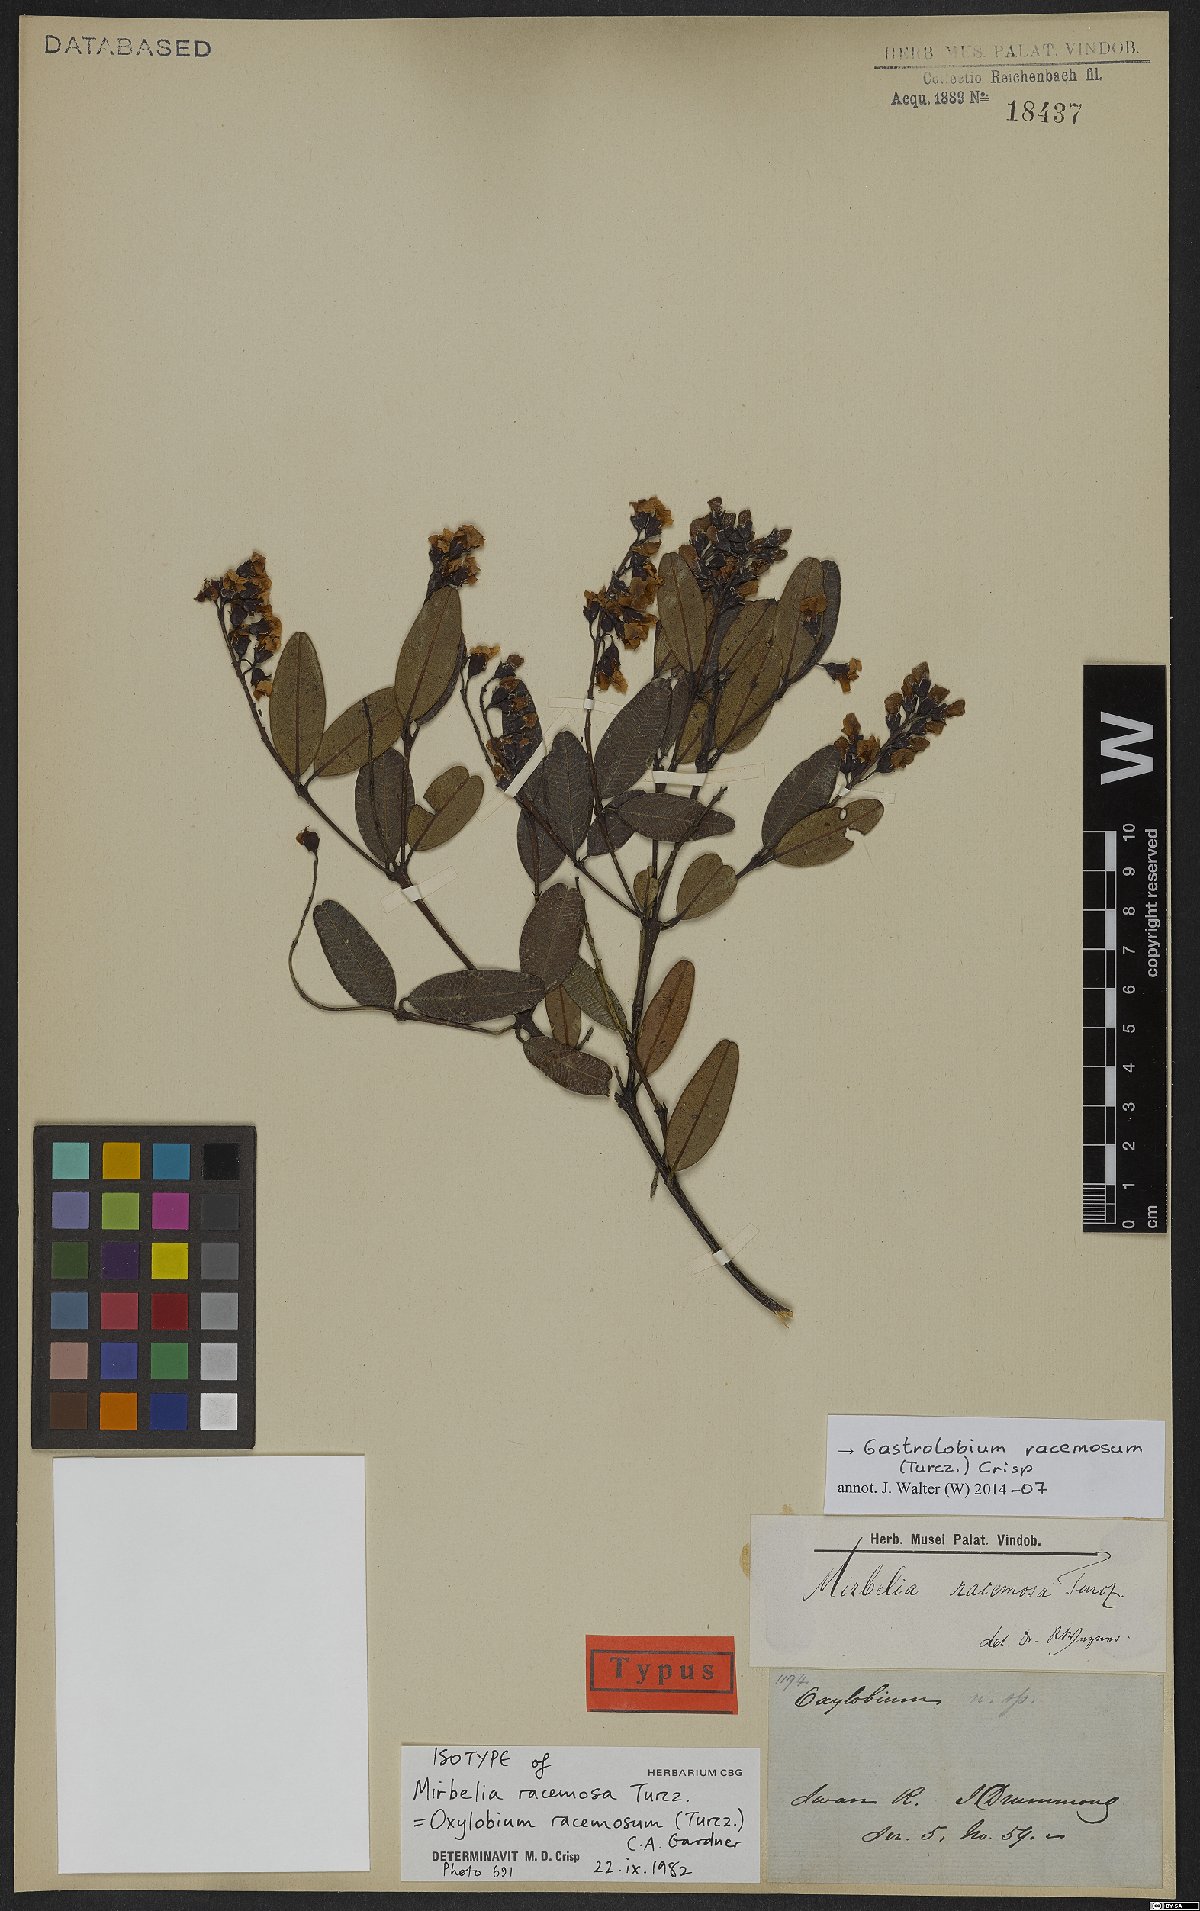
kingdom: Plantae
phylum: Tracheophyta
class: Magnoliopsida
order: Fabales
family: Fabaceae
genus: Gastrolobium
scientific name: Gastrolobium racemosum
